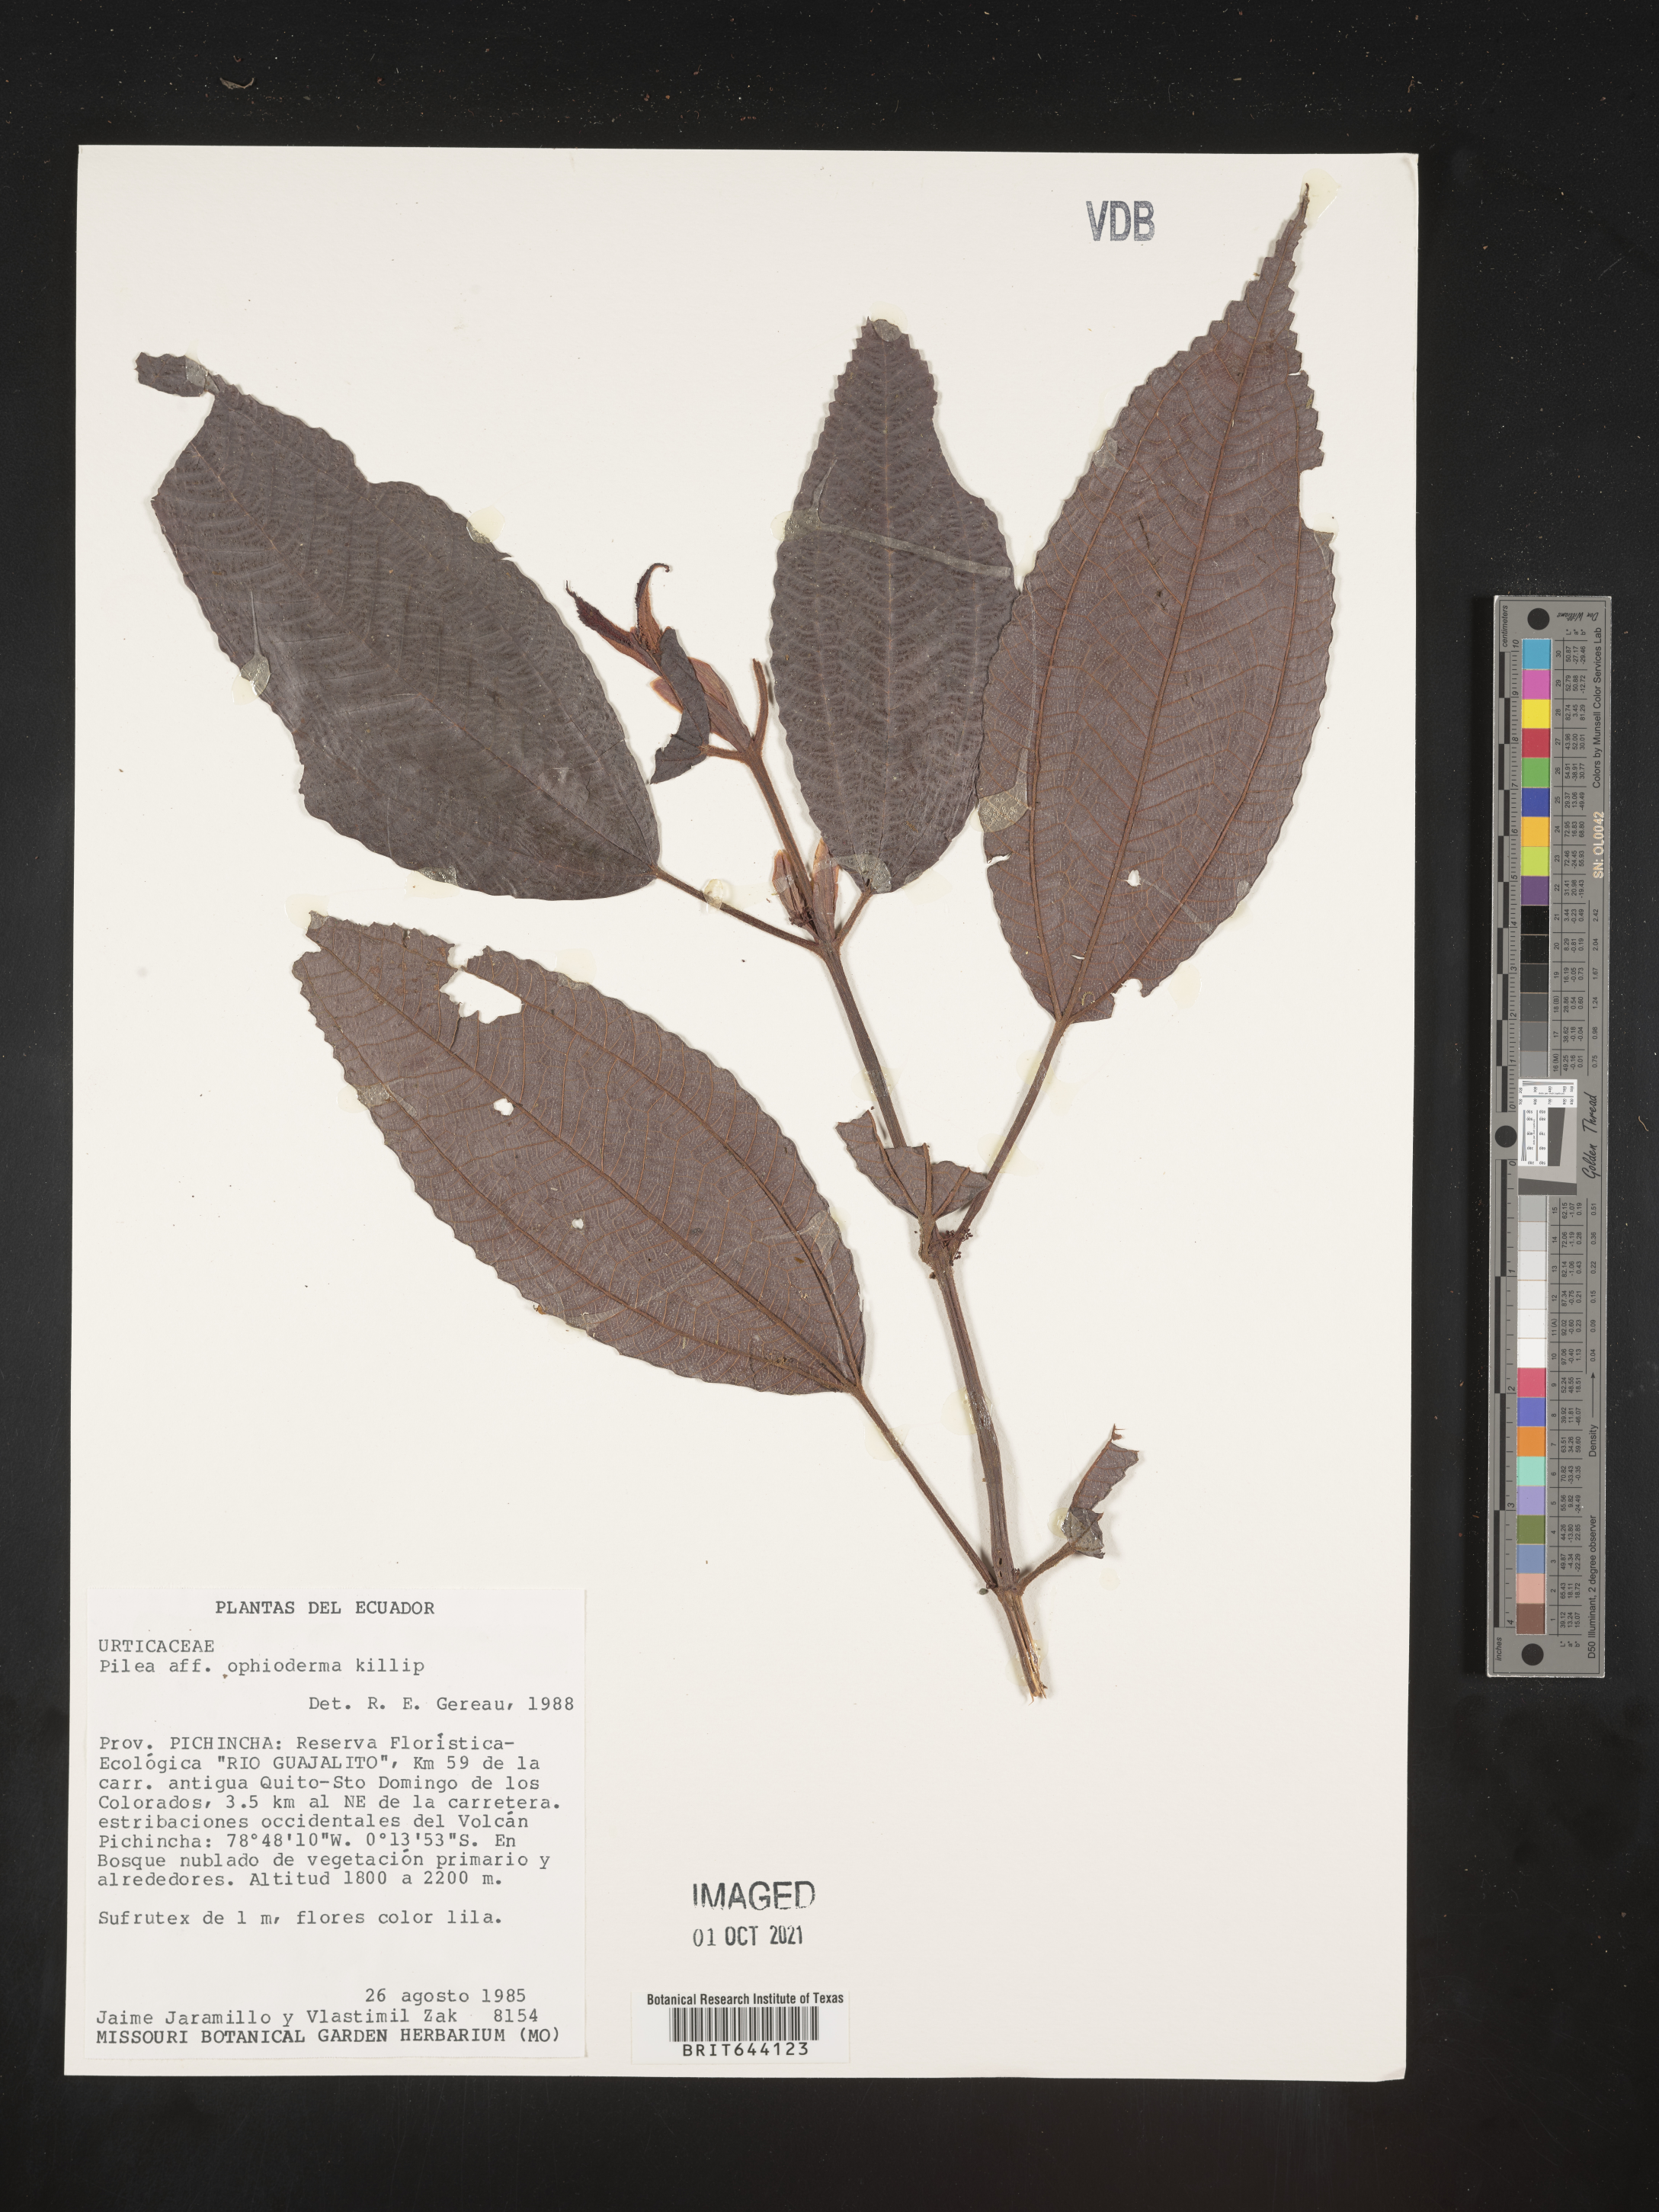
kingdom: Plantae
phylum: Tracheophyta
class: Magnoliopsida
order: Rosales
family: Urticaceae
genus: Pilea
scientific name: Pilea
